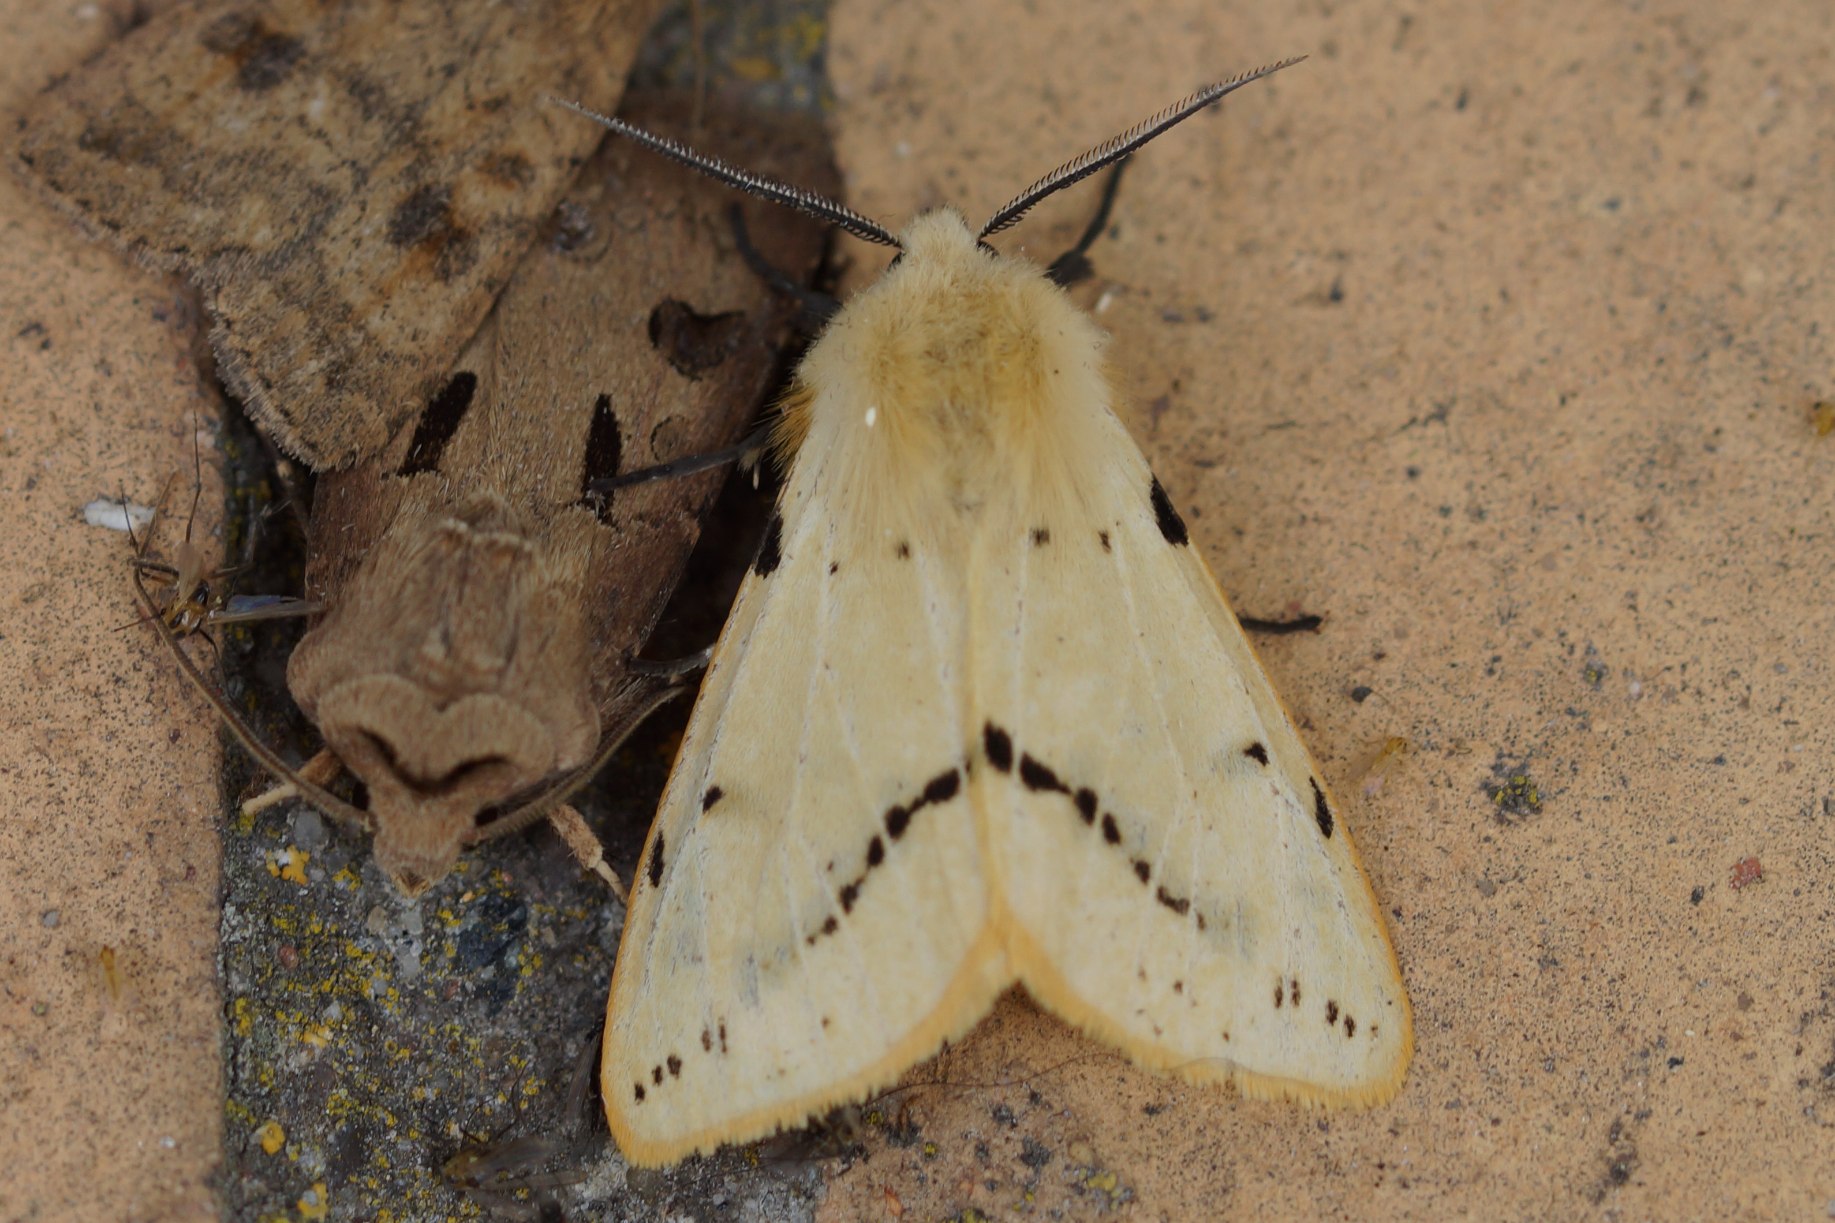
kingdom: Animalia
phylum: Arthropoda
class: Insecta
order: Lepidoptera
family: Erebidae
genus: Spilarctia
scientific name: Spilarctia lutea
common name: Gul tigerspinder
